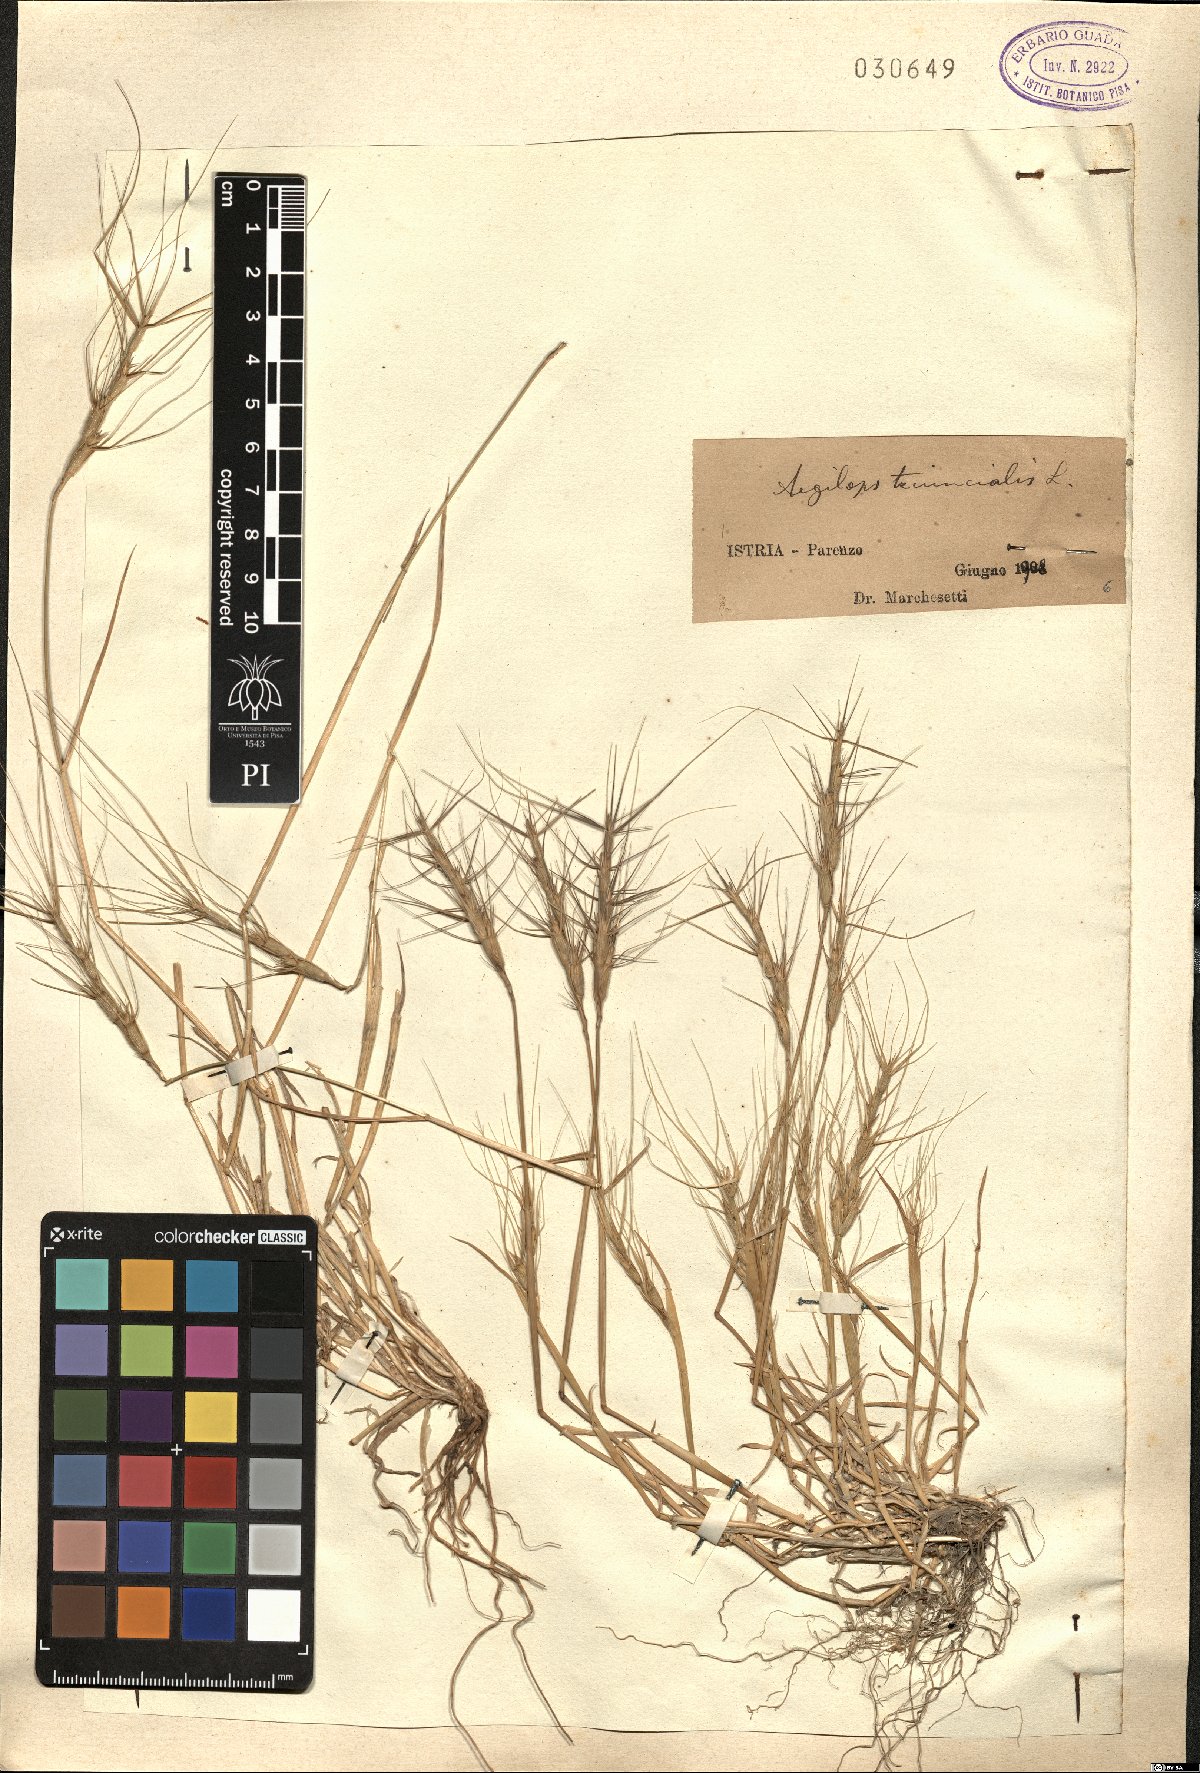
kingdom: Plantae
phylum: Tracheophyta
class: Liliopsida
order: Poales
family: Poaceae
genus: Aegilops
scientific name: Aegilops triuncialis
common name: Barb goat grass
